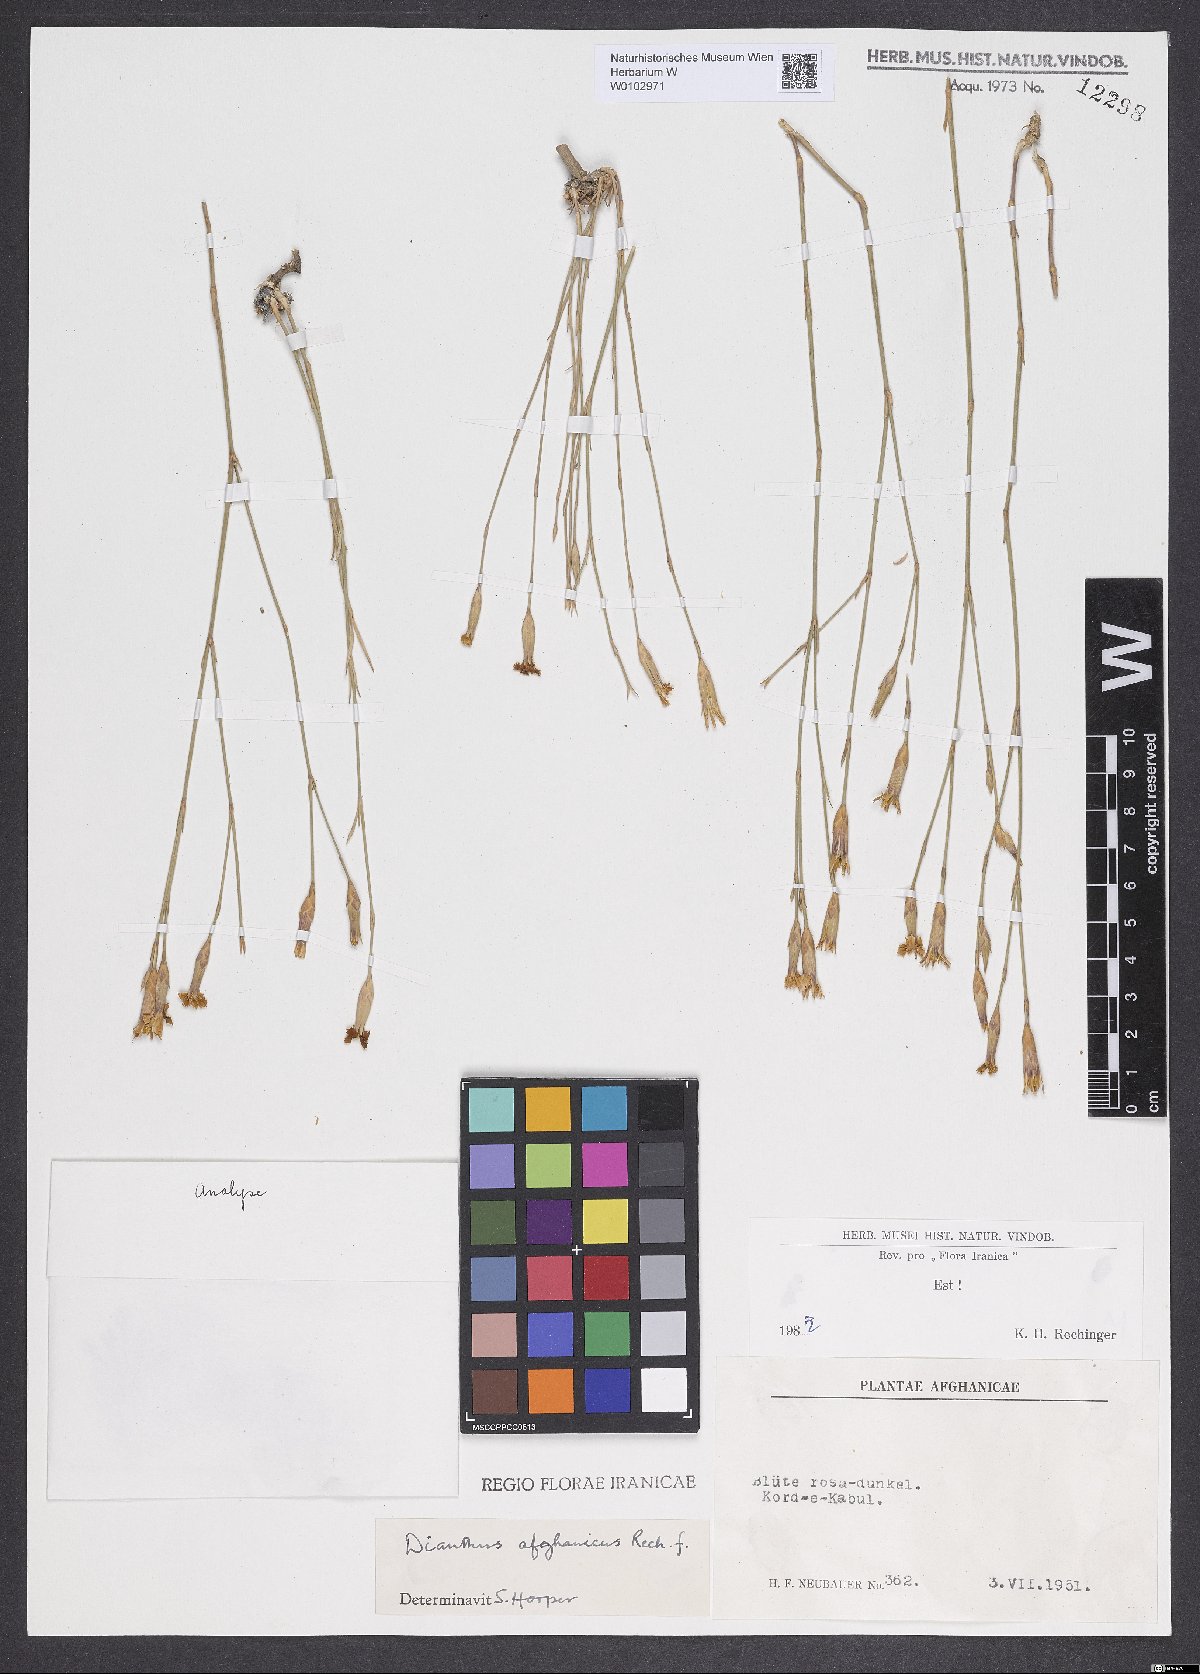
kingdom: Plantae
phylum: Tracheophyta
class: Magnoliopsida
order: Caryophyllales
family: Caryophyllaceae
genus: Dianthus
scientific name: Dianthus afghanicus
